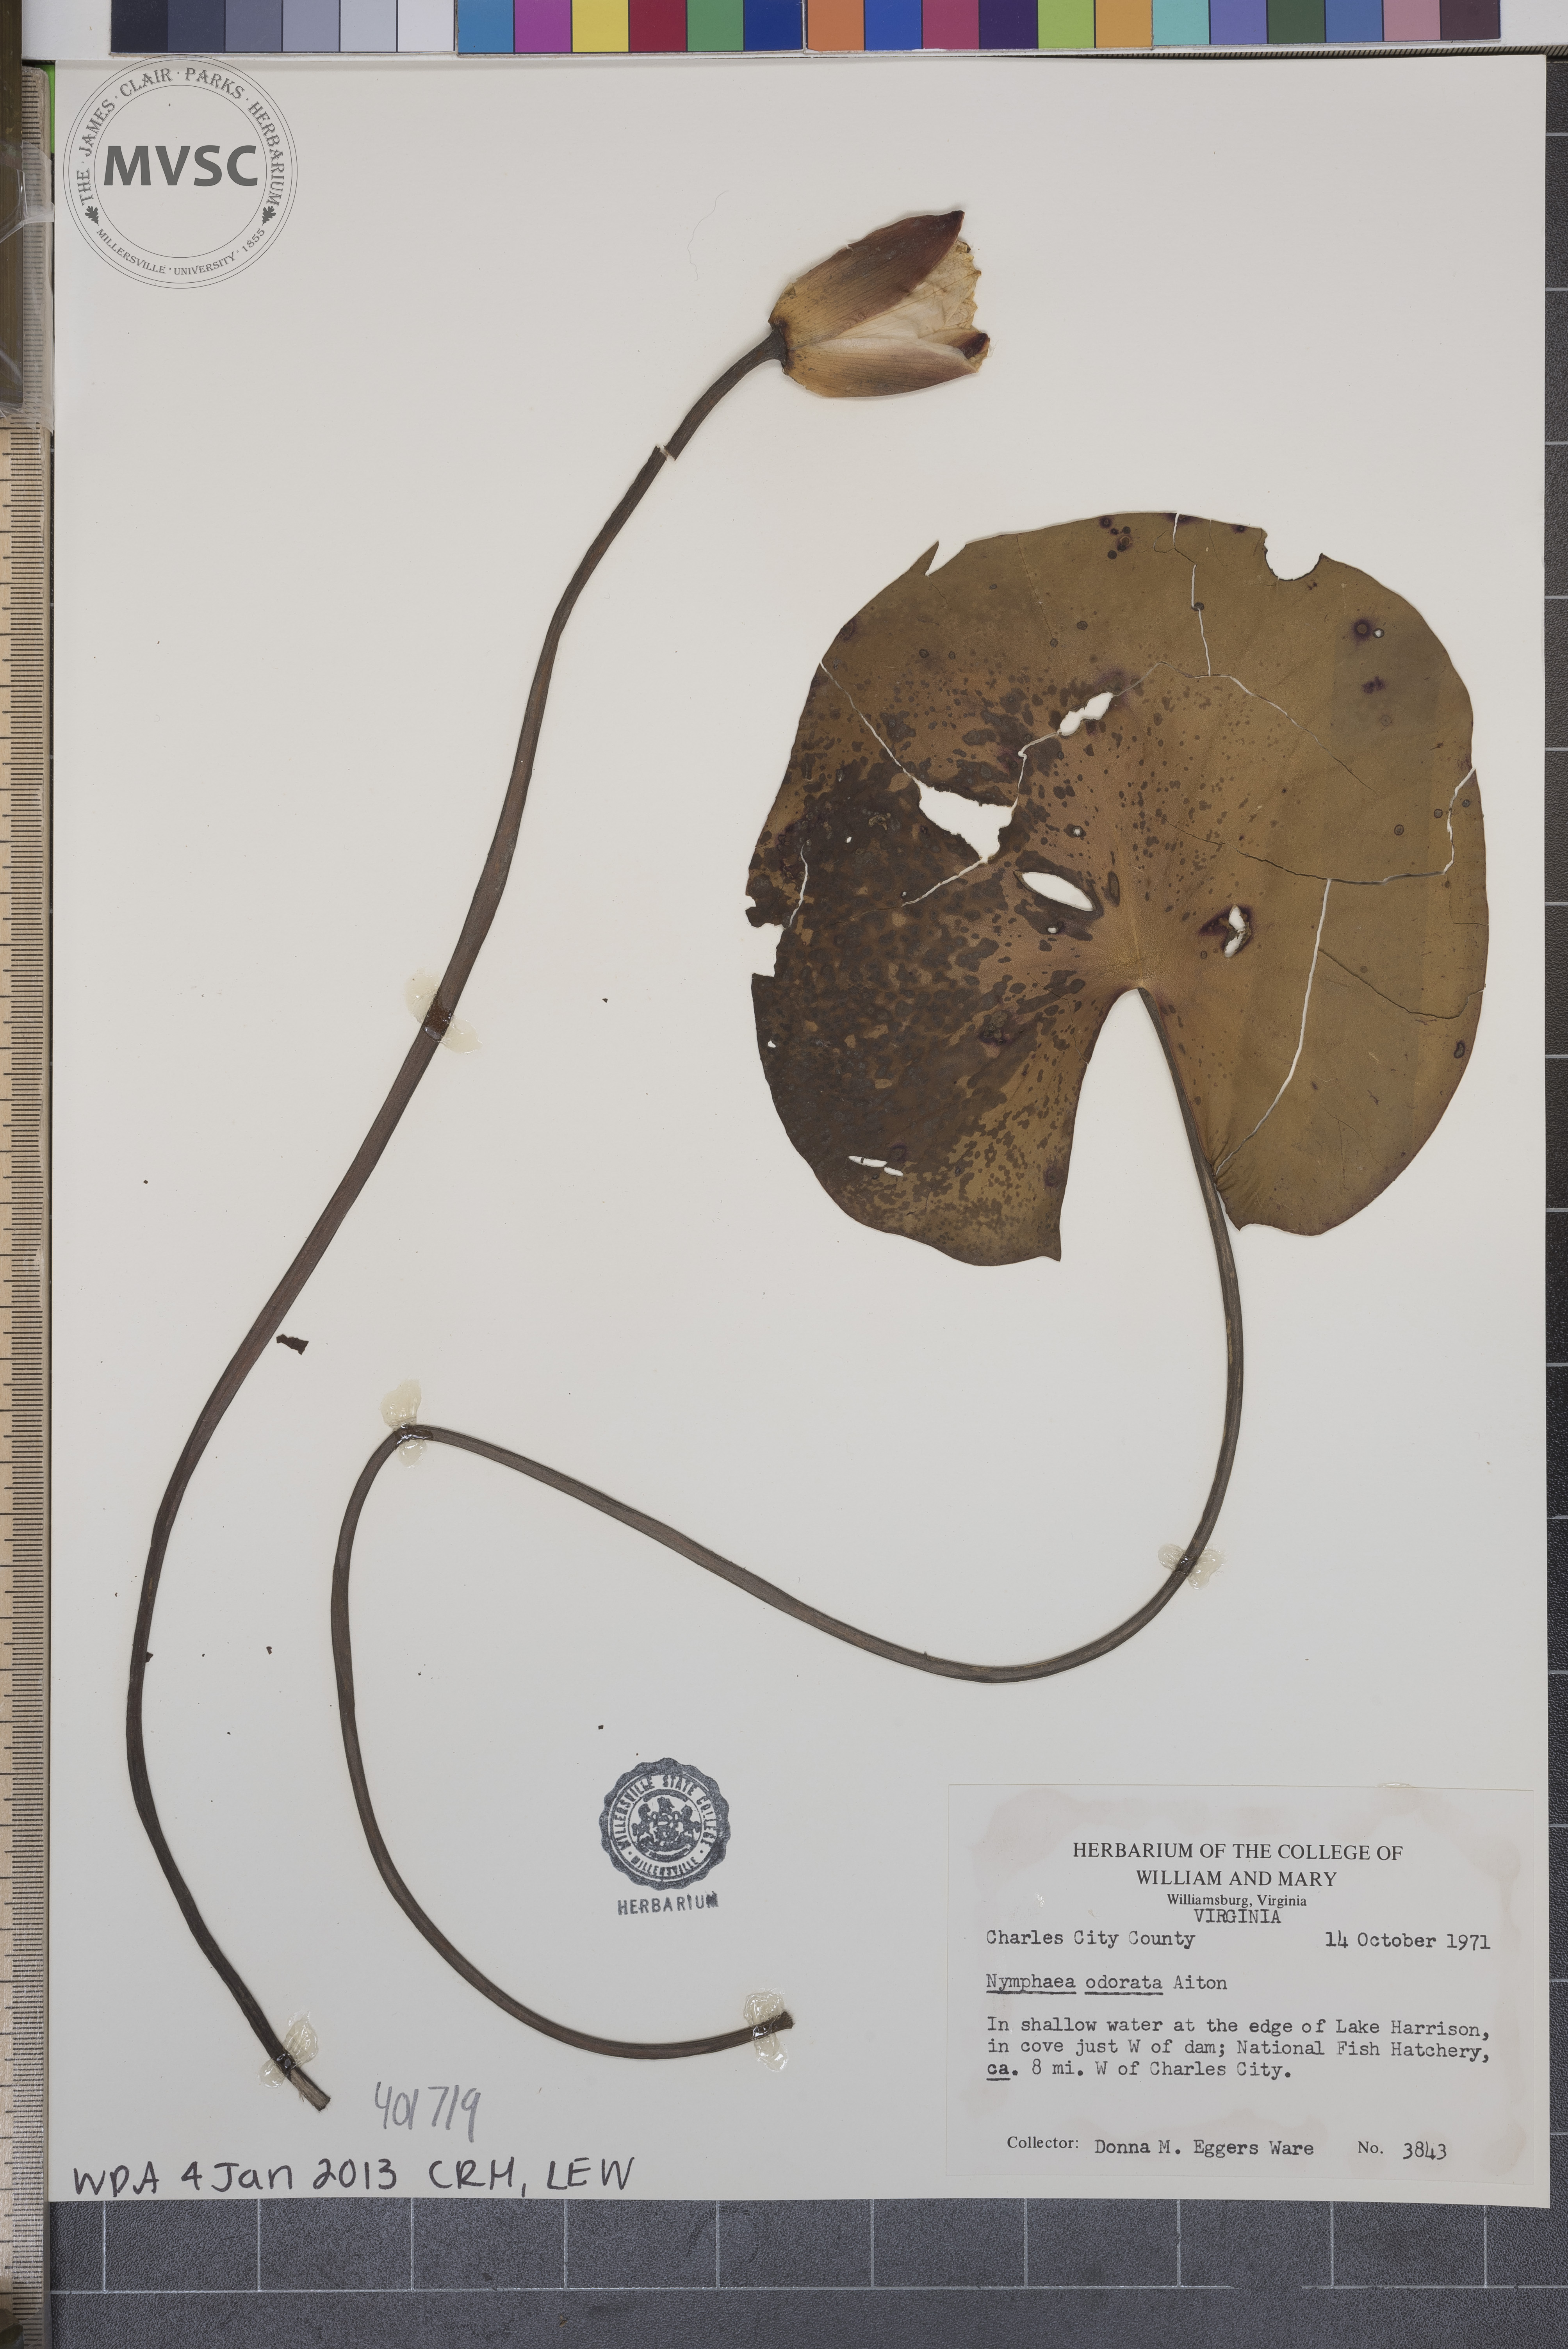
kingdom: Plantae
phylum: Tracheophyta
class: Magnoliopsida
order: Nymphaeales
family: Nymphaeaceae
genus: Nymphaea
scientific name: Nymphaea odorata
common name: Water-lily
